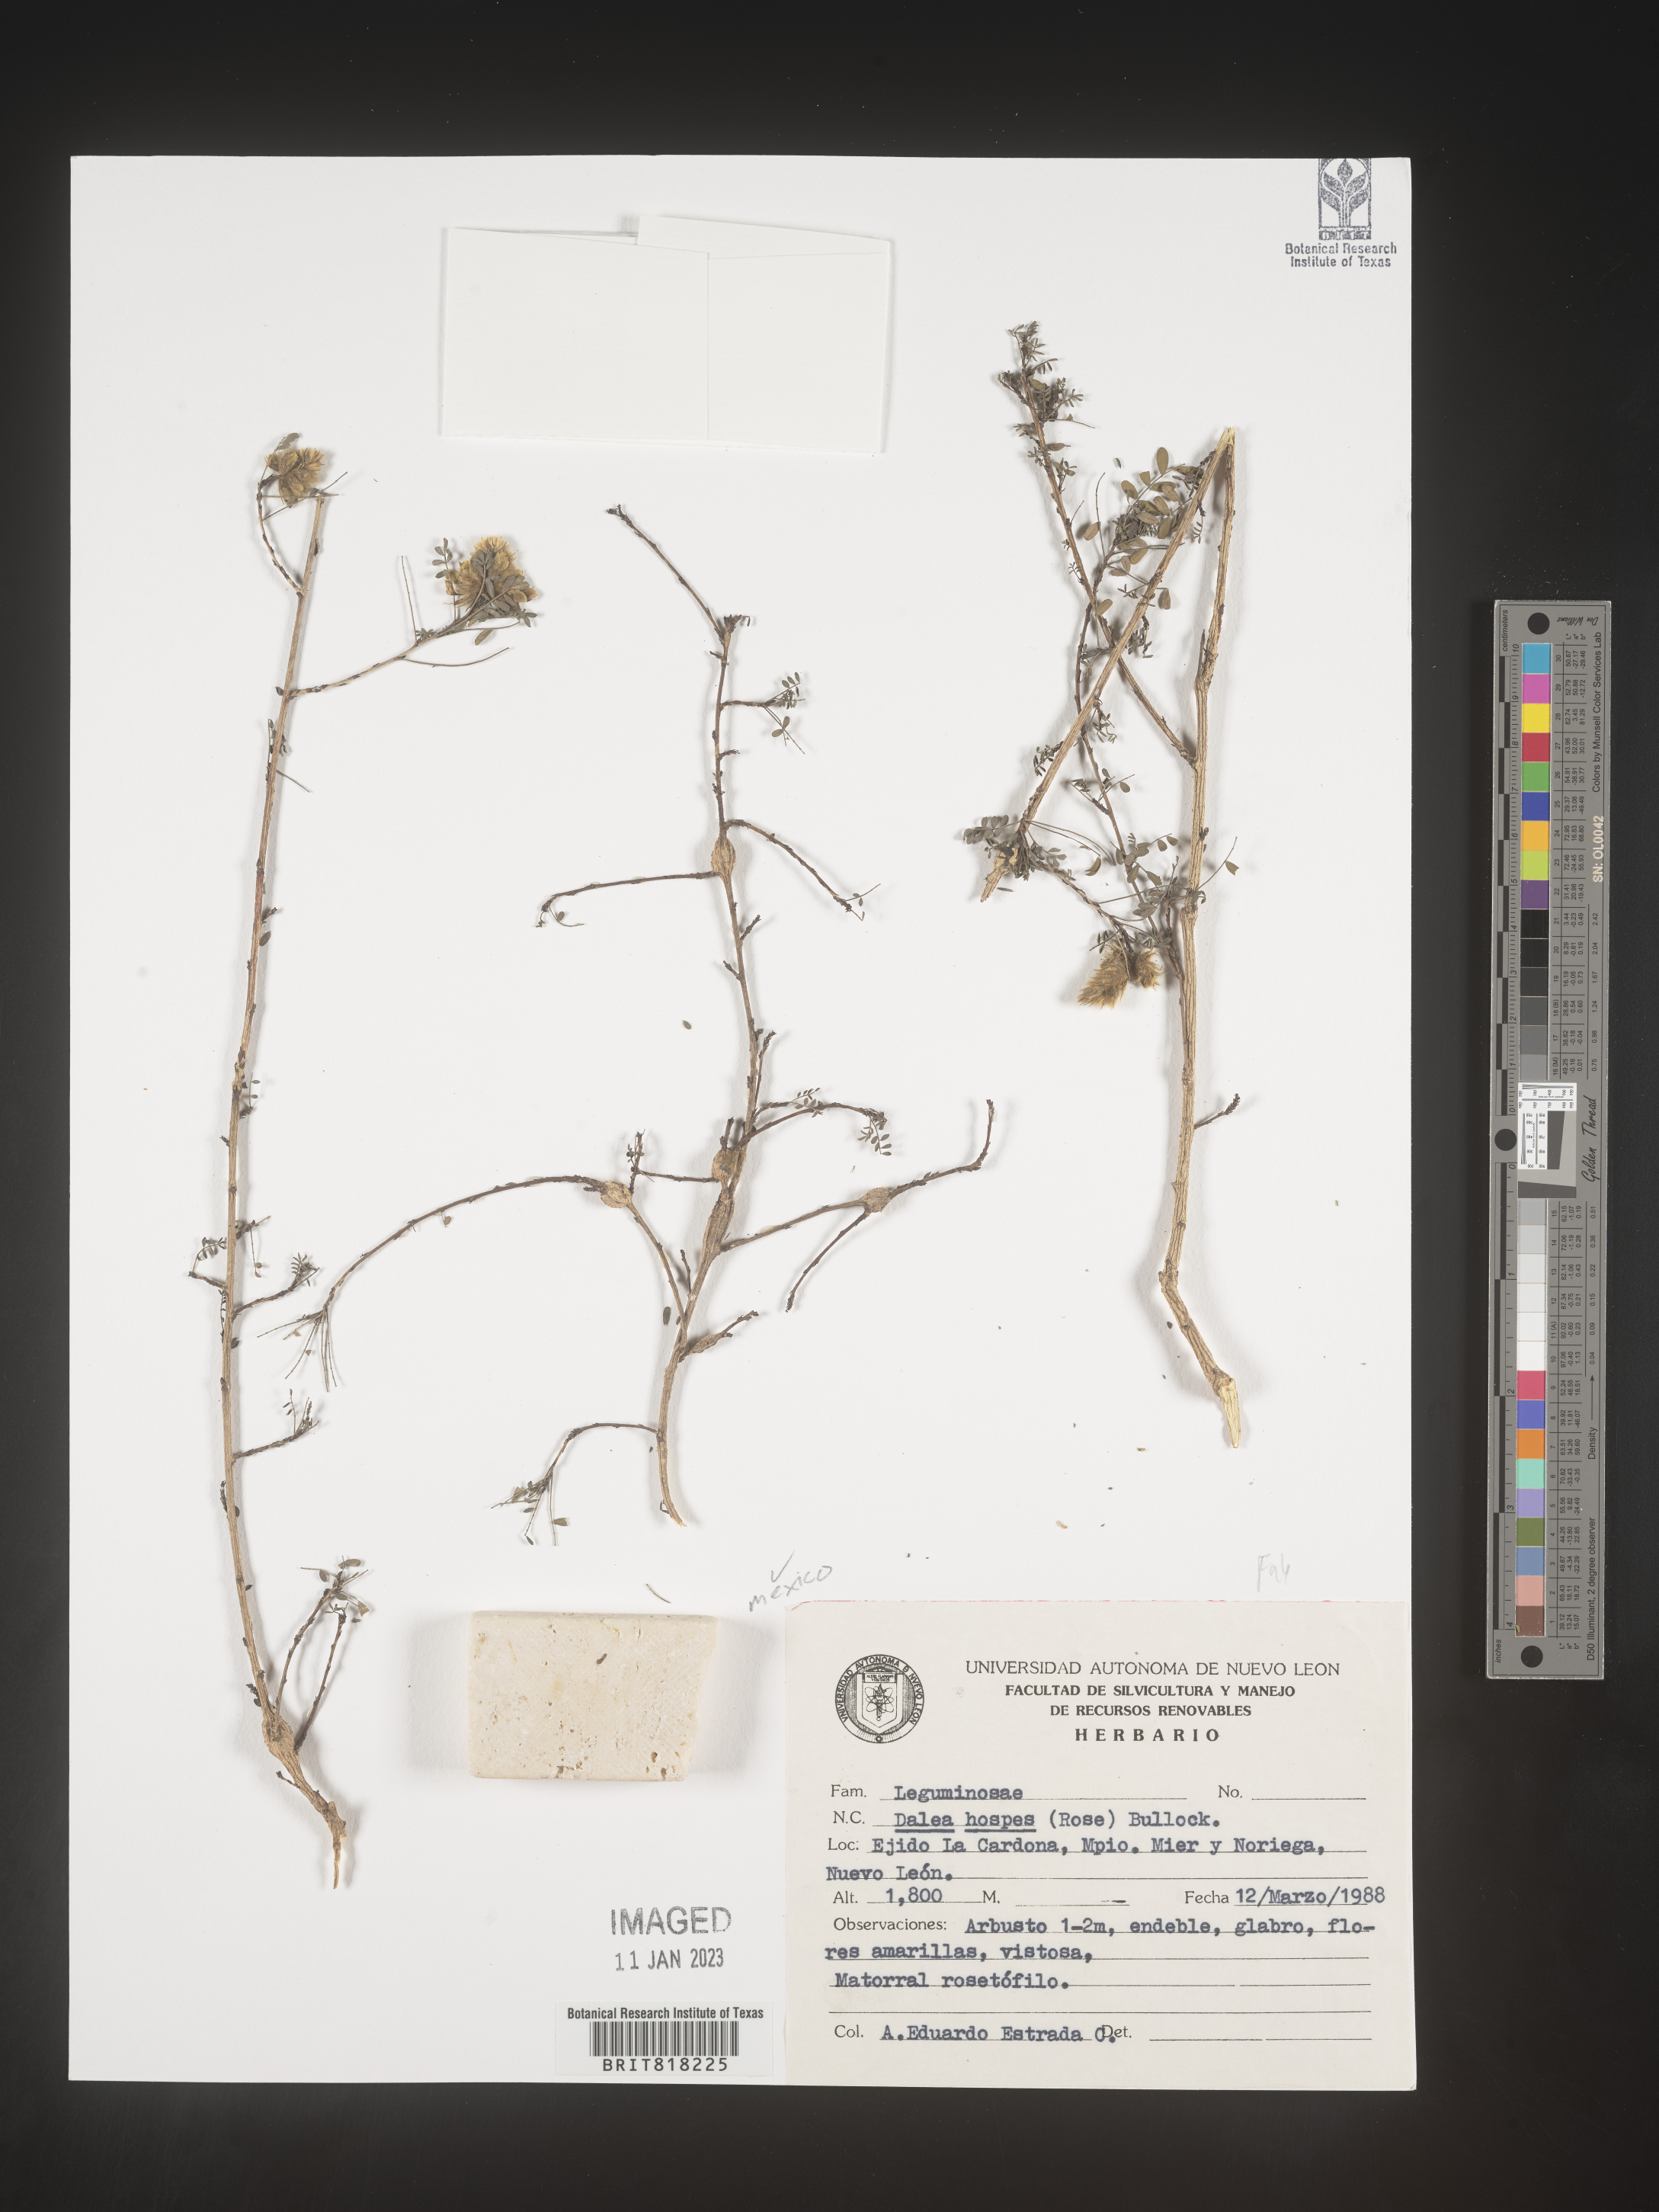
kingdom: Plantae
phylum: Tracheophyta
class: Magnoliopsida
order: Fabales
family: Fabaceae
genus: Dalea
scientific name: Dalea
